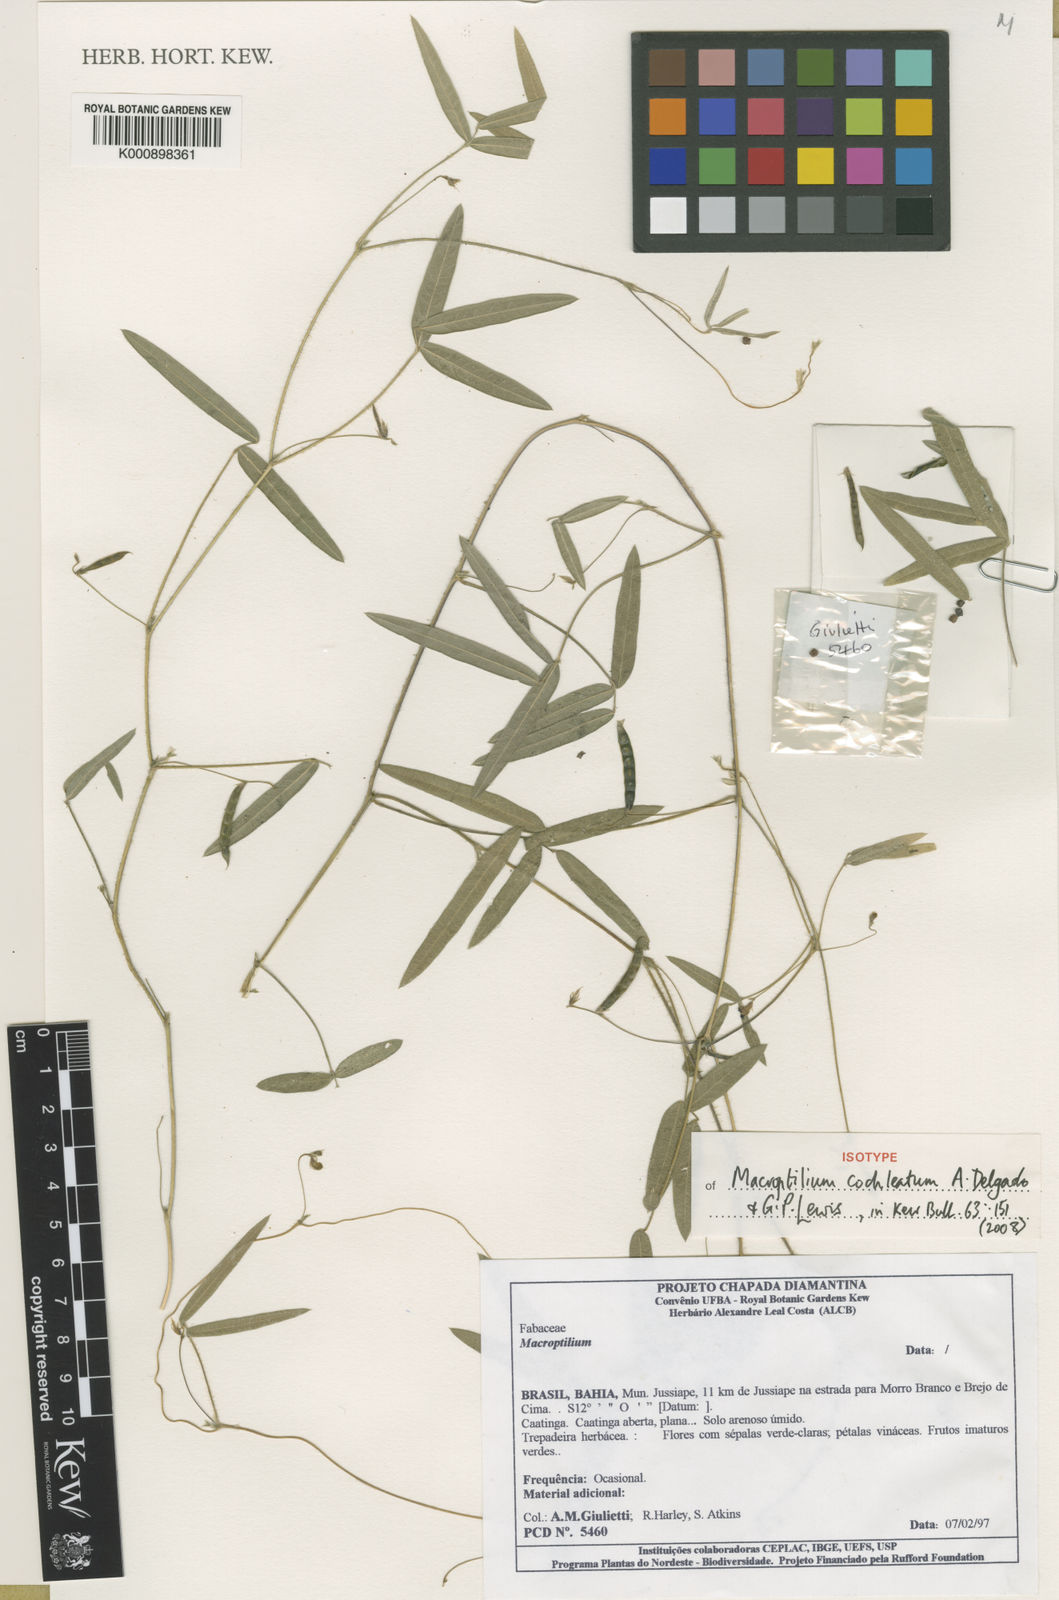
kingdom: Plantae
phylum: Tracheophyta
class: Magnoliopsida
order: Fabales
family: Fabaceae
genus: Macroptilium
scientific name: Macroptilium cochleatum
